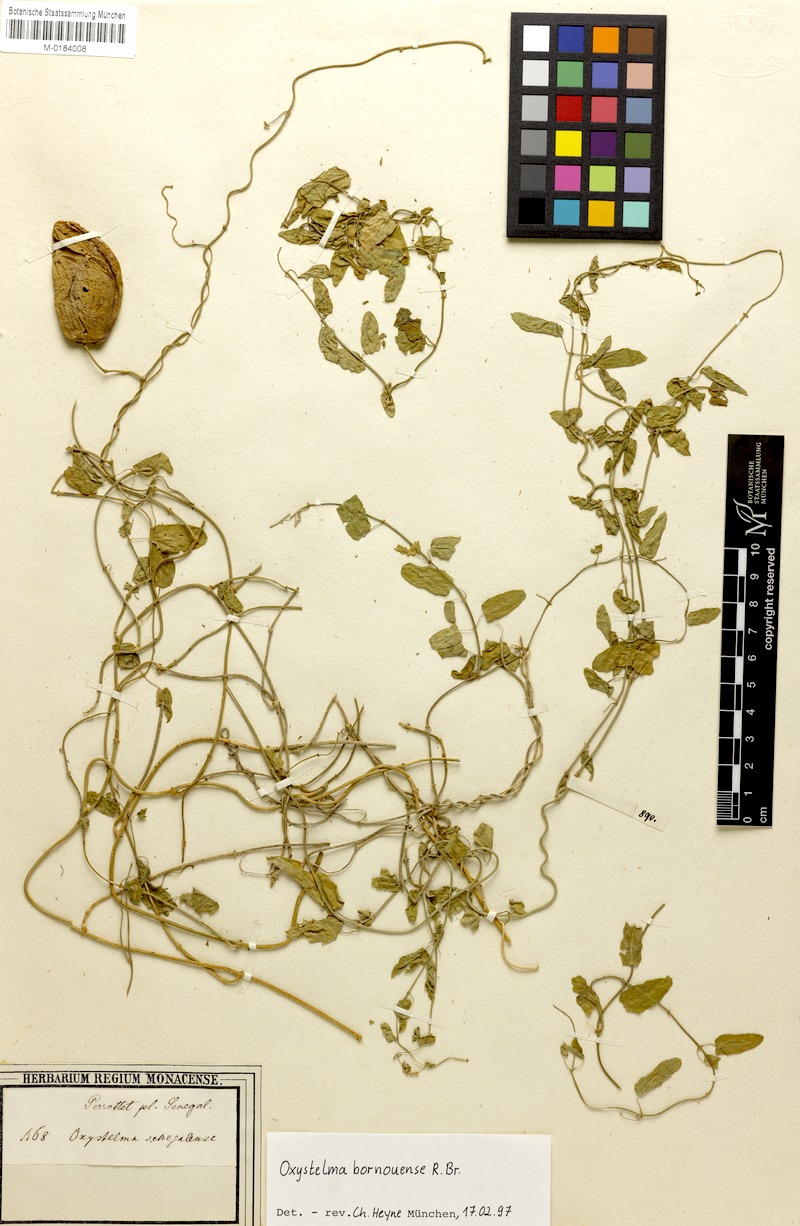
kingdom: Plantae
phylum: Tracheophyta
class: Magnoliopsida
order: Gentianales
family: Apocynaceae
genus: Oxystelma
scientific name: Oxystelma bornouense
